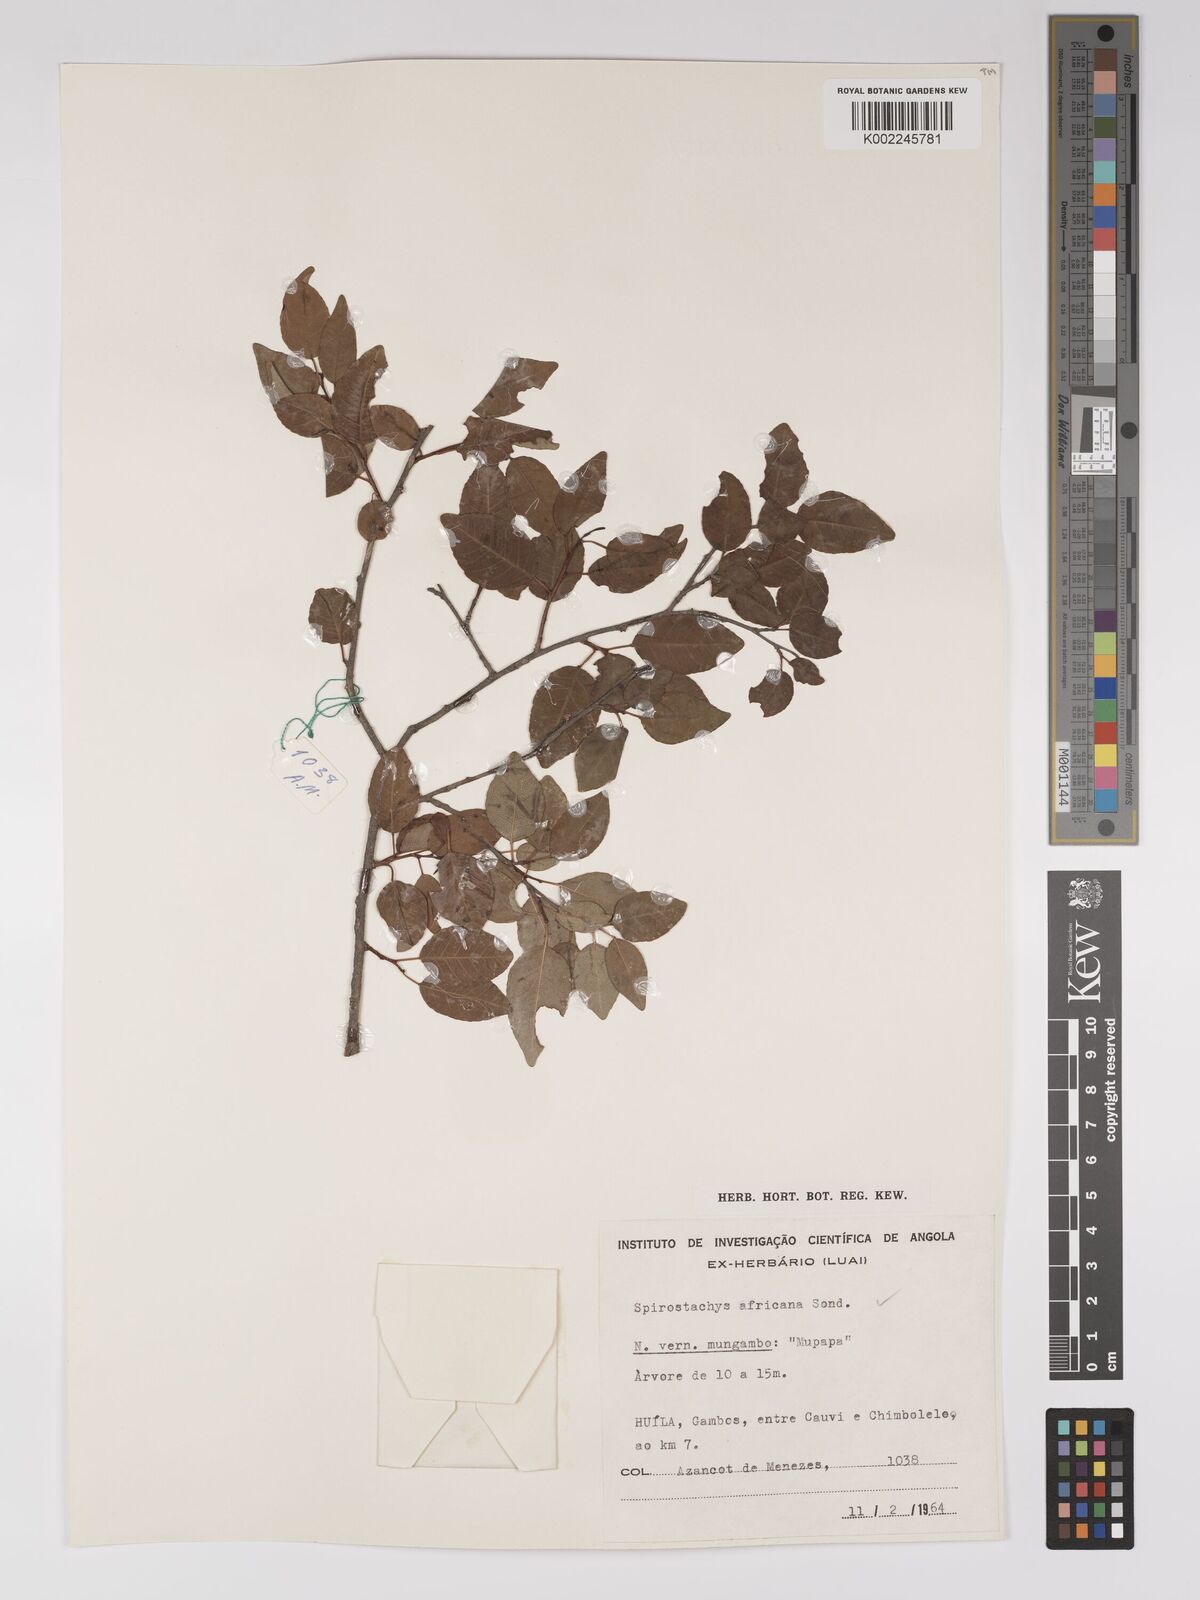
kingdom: Plantae
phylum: Tracheophyta
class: Magnoliopsida
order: Malpighiales
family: Euphorbiaceae
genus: Spirostachys
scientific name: Spirostachys africana
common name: Tamboti
